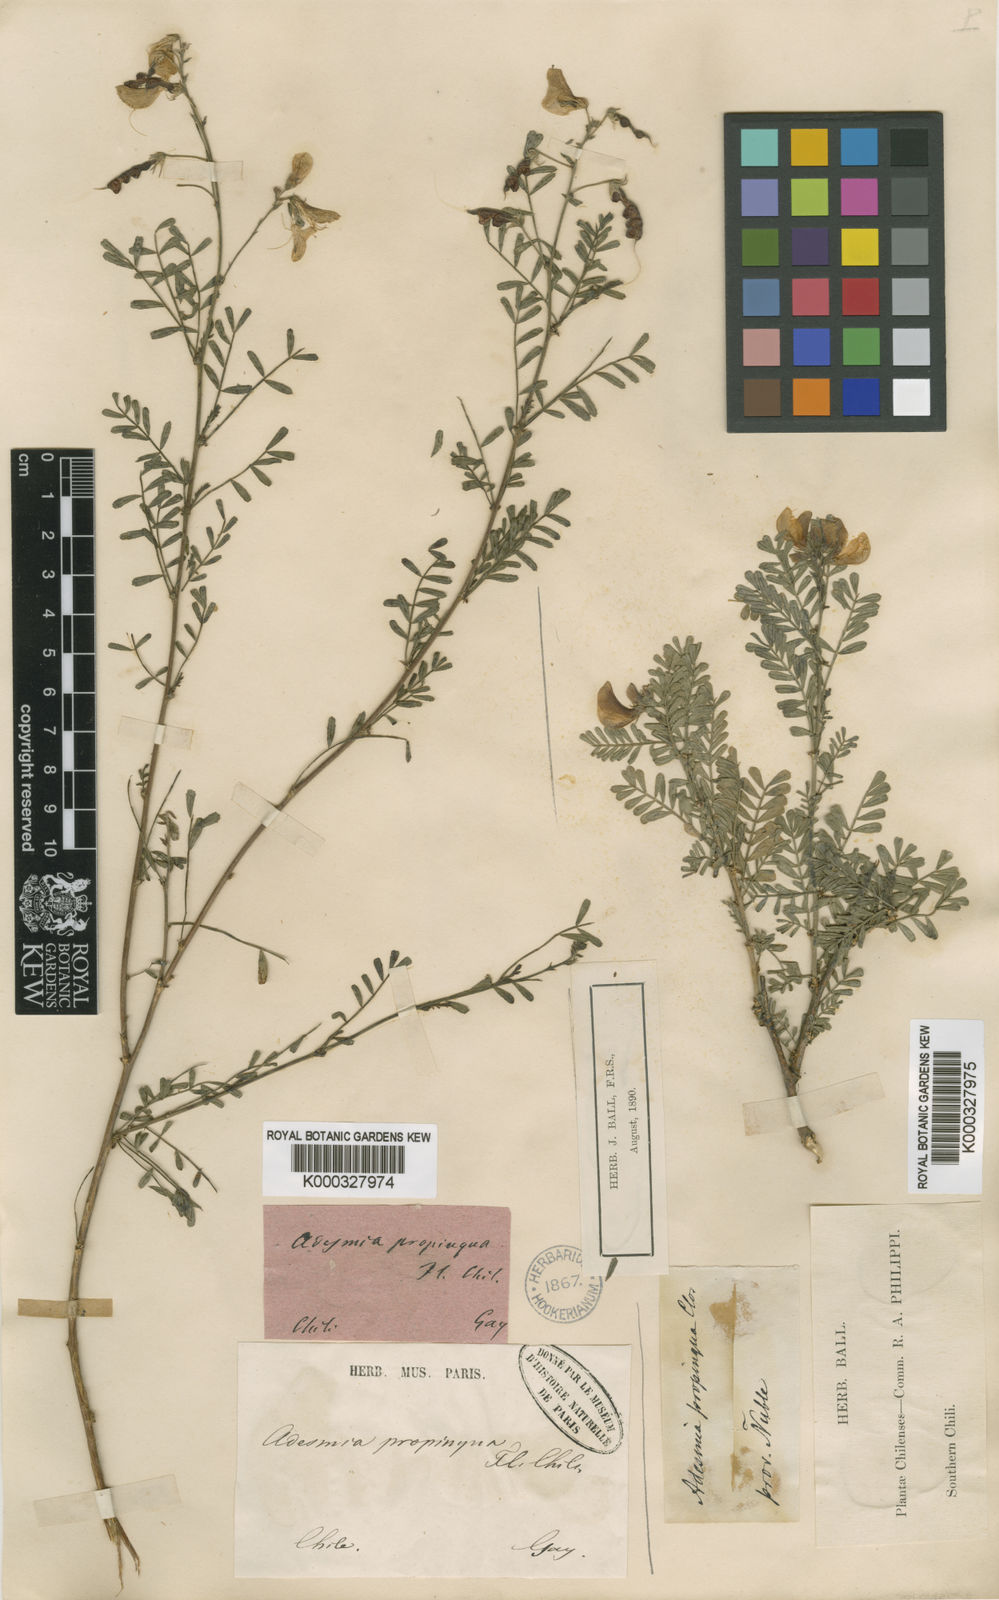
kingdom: Plantae
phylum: Tracheophyta
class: Magnoliopsida
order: Fabales
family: Fabaceae
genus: Adesmia
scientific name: Adesmia propinqua
